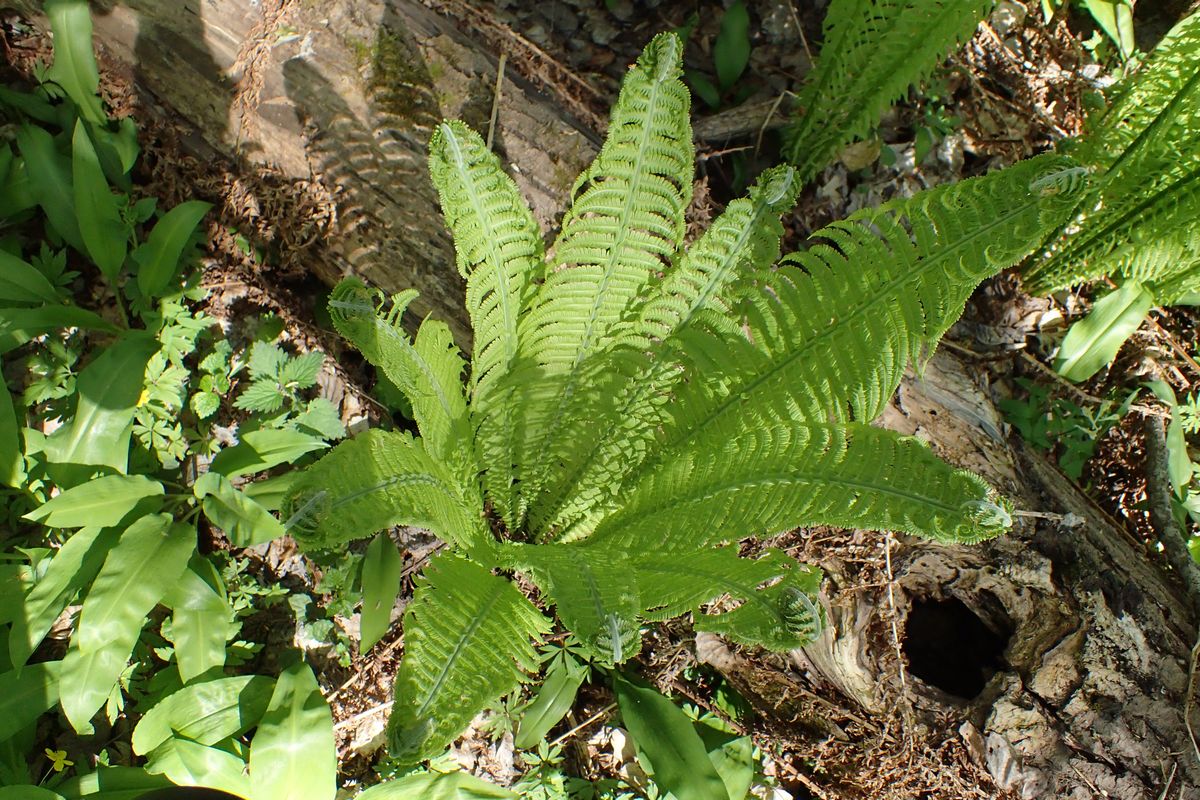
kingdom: Plantae
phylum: Tracheophyta
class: Polypodiopsida
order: Polypodiales
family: Onocleaceae
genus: Matteuccia
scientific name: Matteuccia struthiopteris
